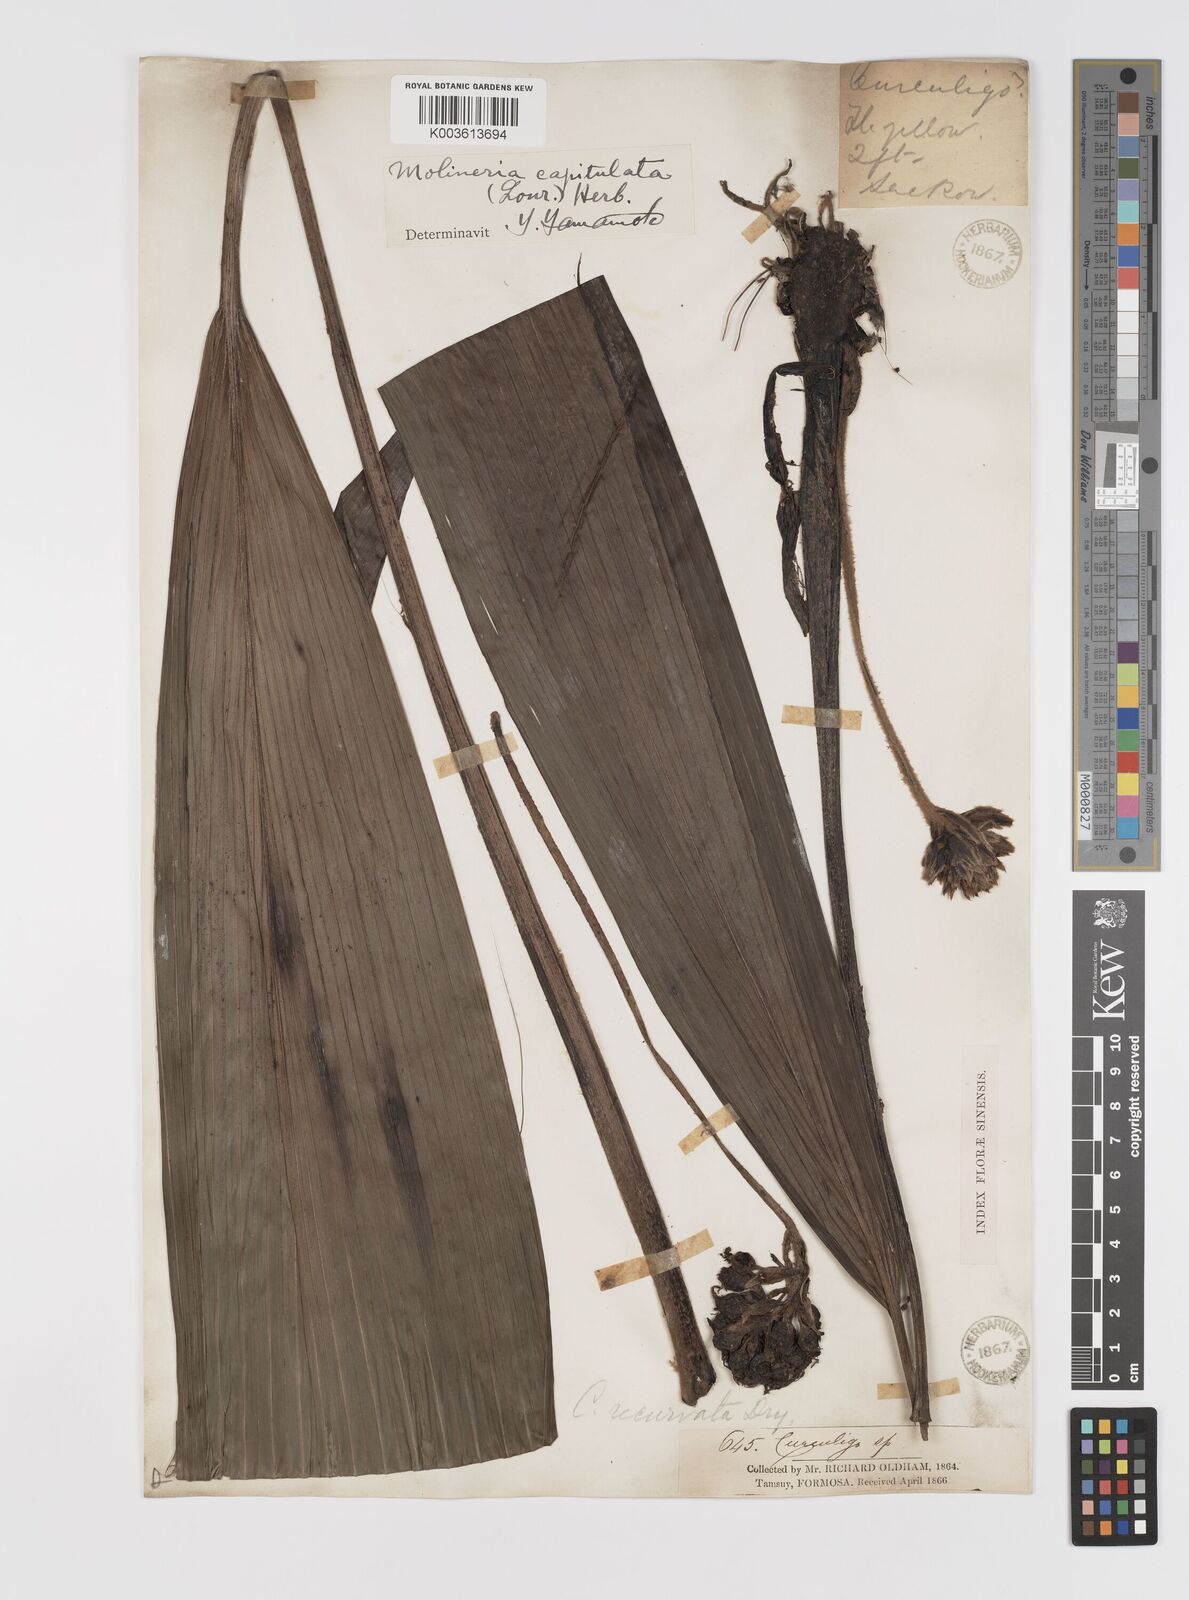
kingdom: Plantae
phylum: Tracheophyta
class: Liliopsida
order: Asparagales
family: Hypoxidaceae
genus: Curculigo
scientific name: Curculigo capitulata
